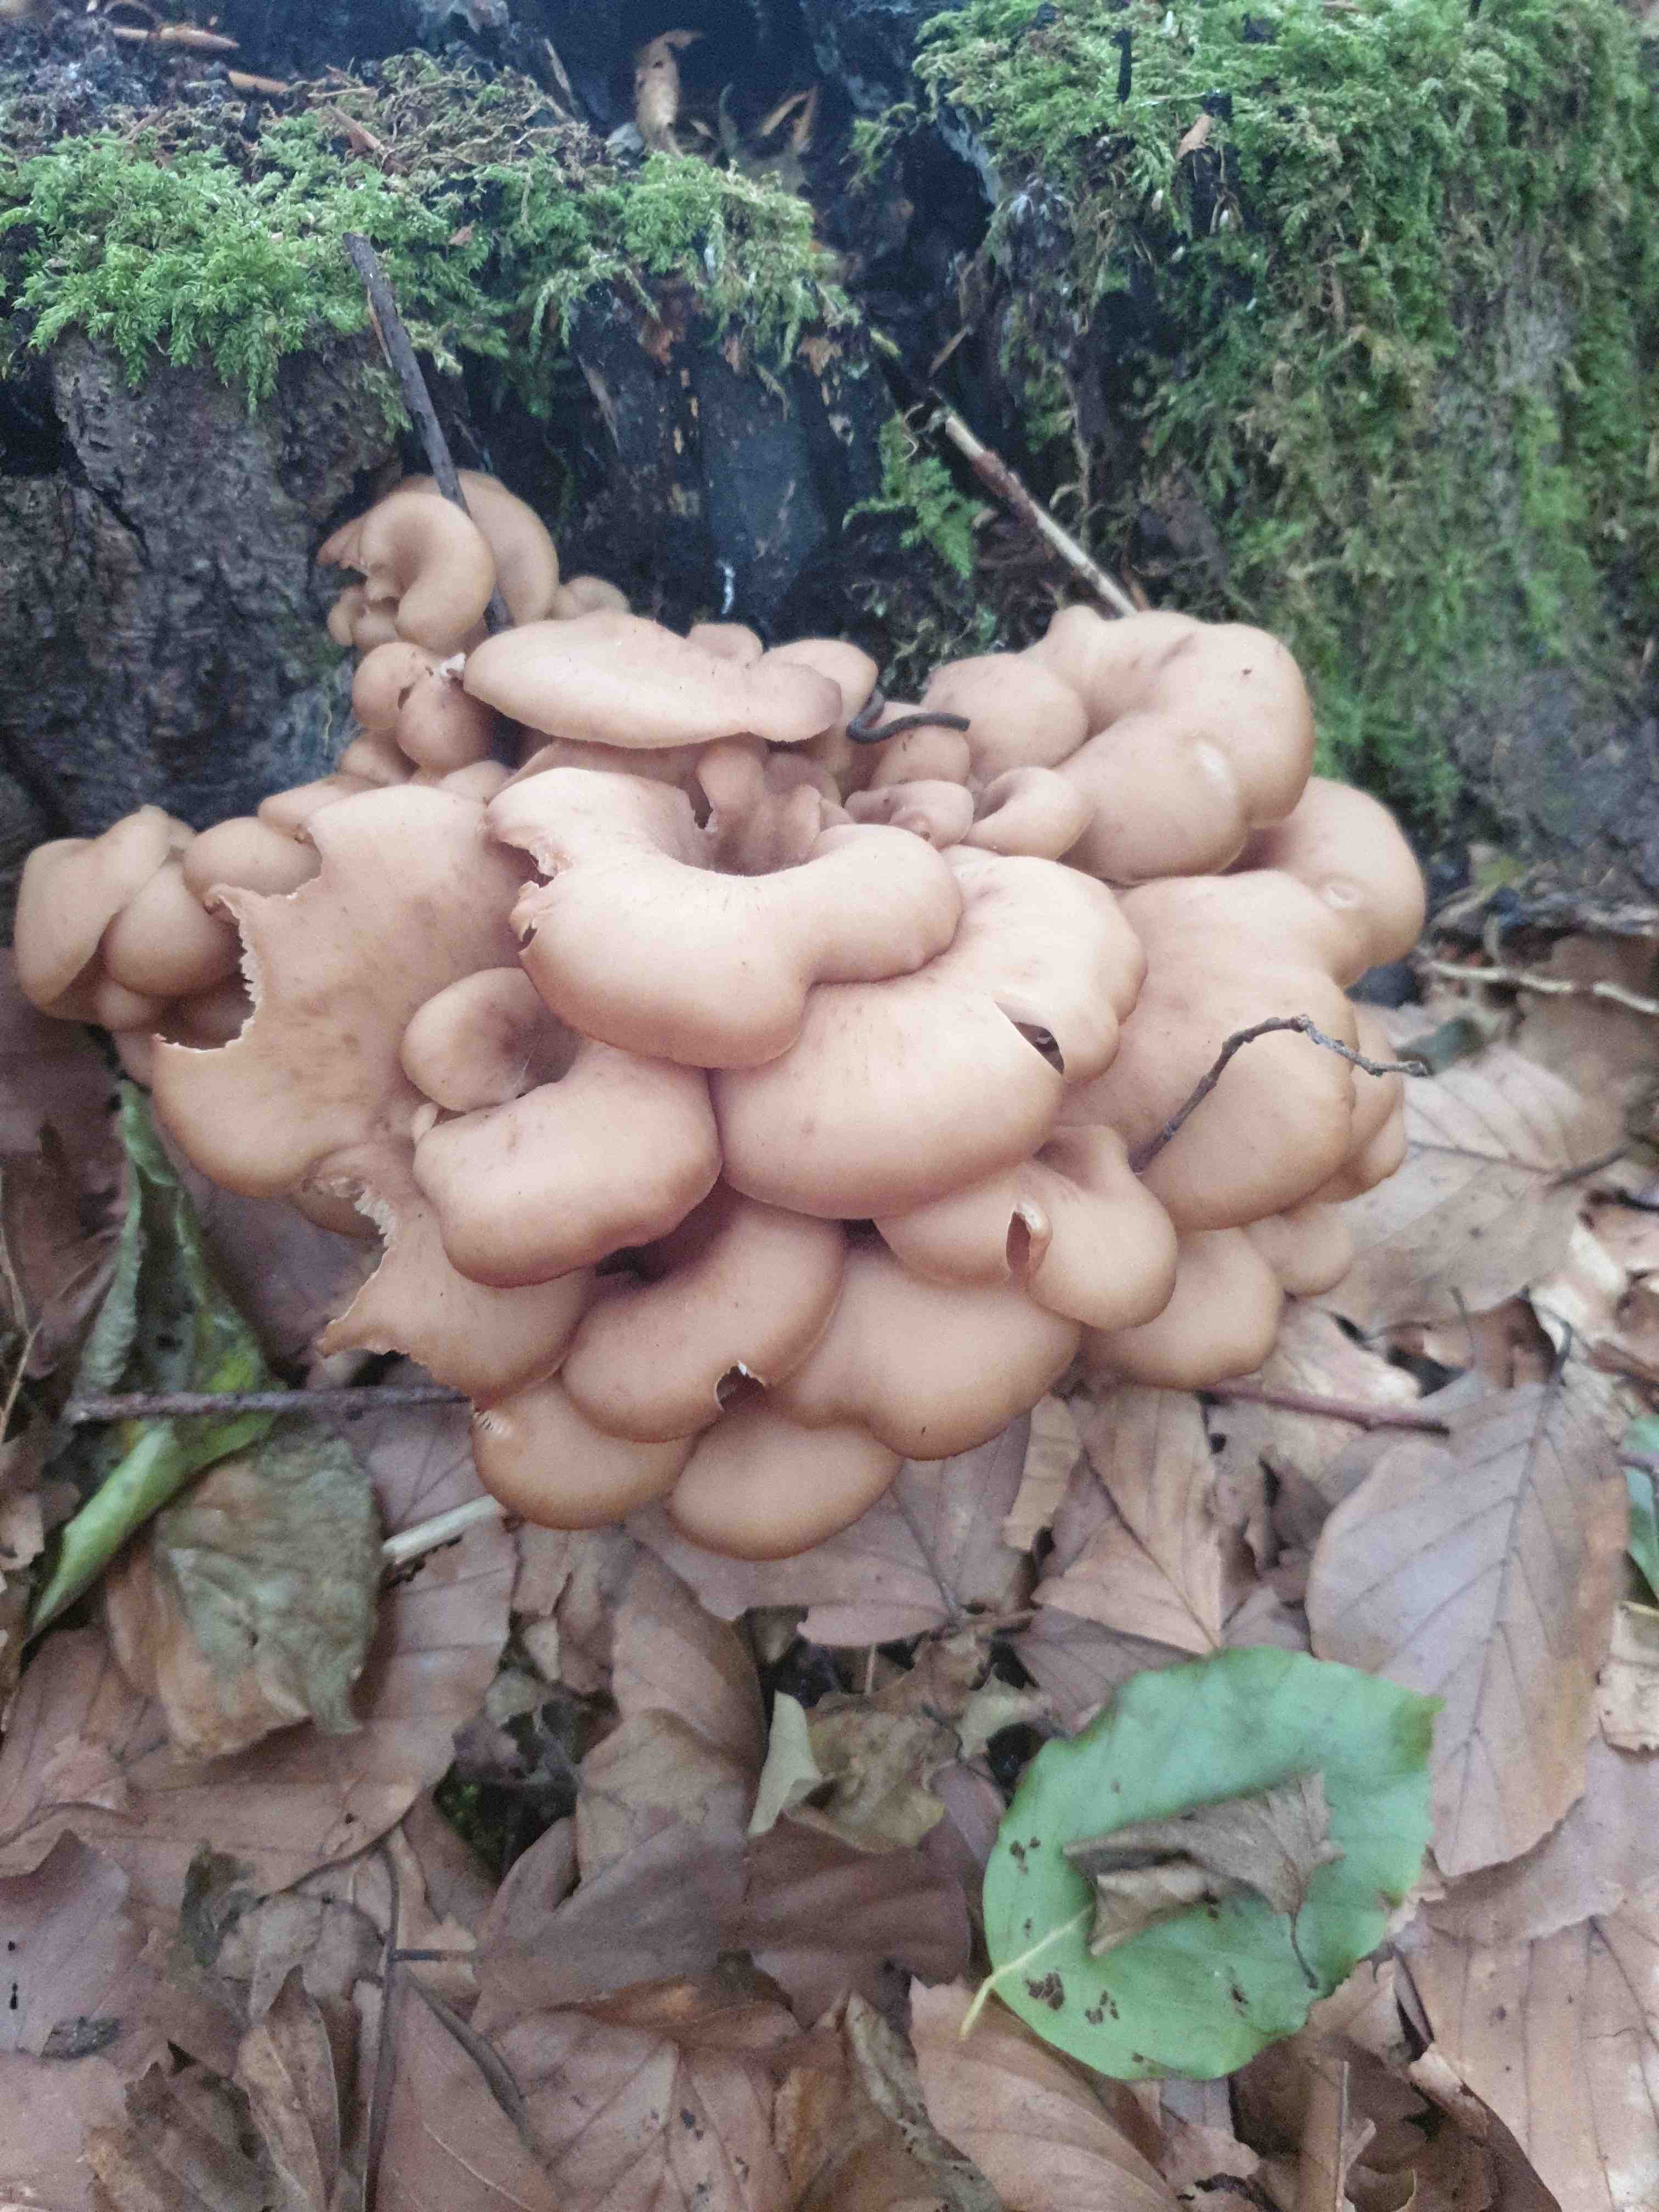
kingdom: Fungi
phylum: Basidiomycota
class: Agaricomycetes
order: Russulales
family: Auriscalpiaceae
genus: Lentinellus
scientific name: Lentinellus cochleatus
